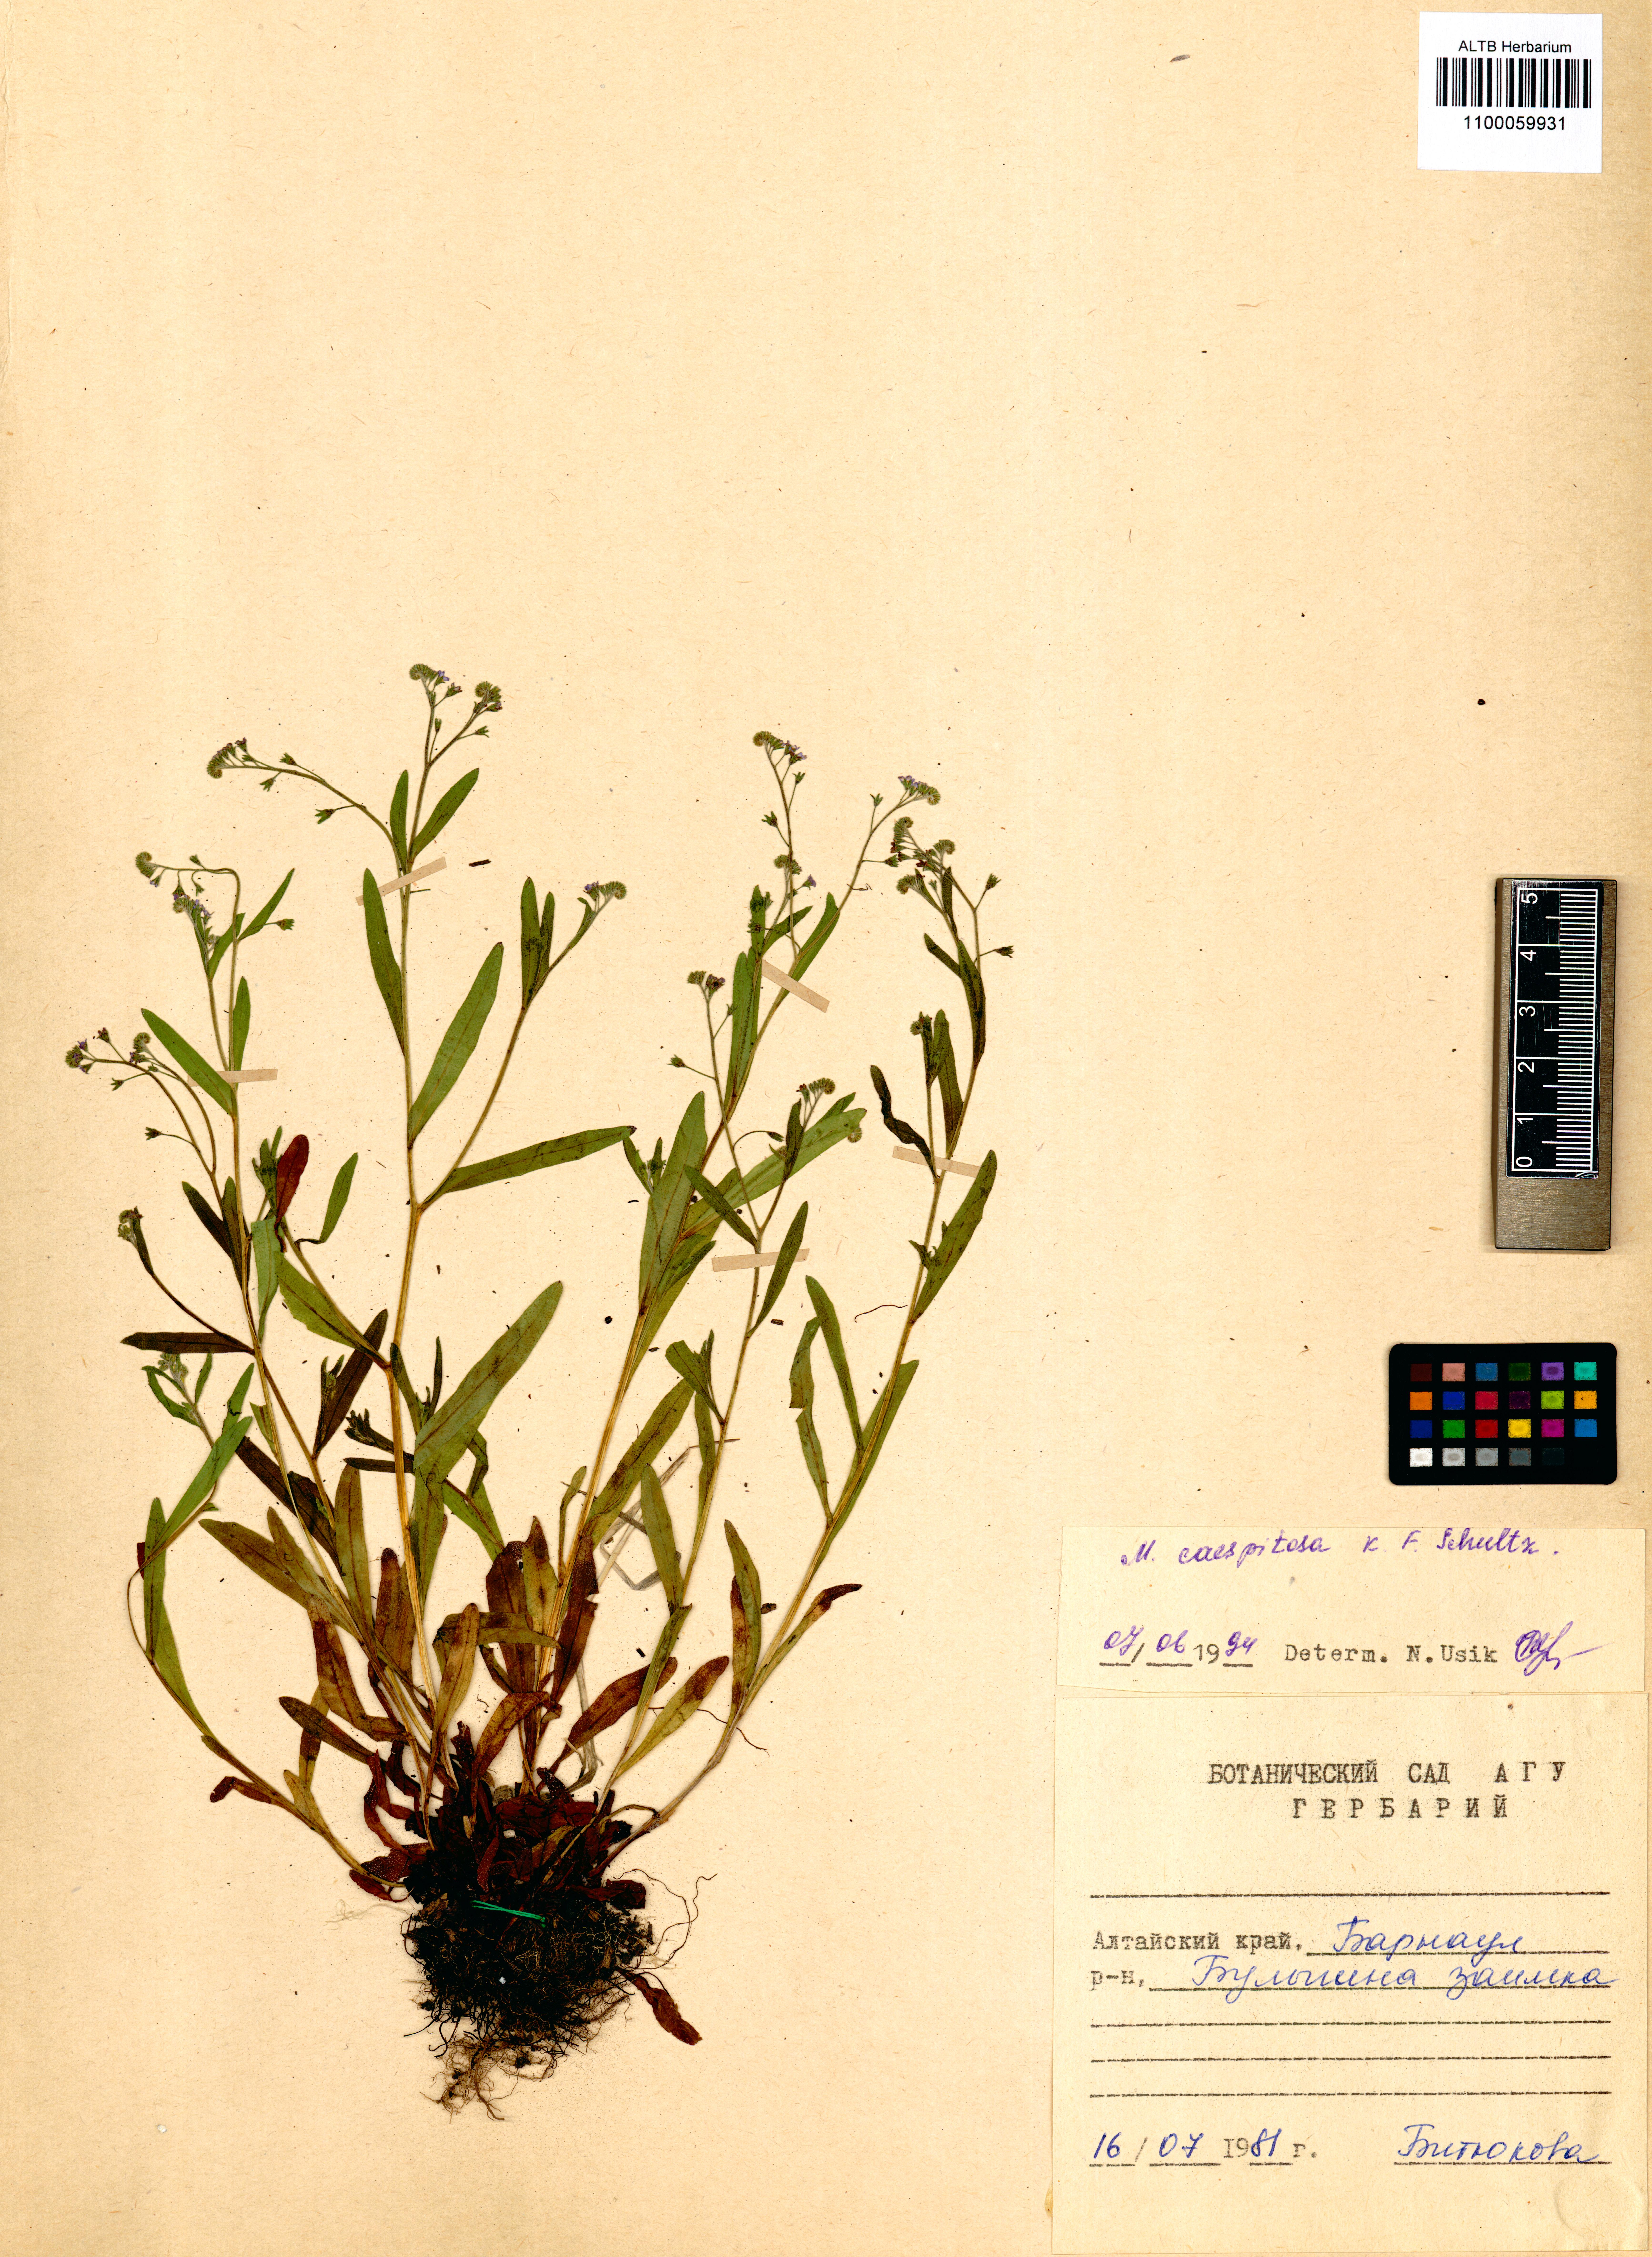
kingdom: Plantae
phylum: Tracheophyta
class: Magnoliopsida
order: Boraginales
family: Boraginaceae
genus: Myosotis
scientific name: Myosotis laxa
